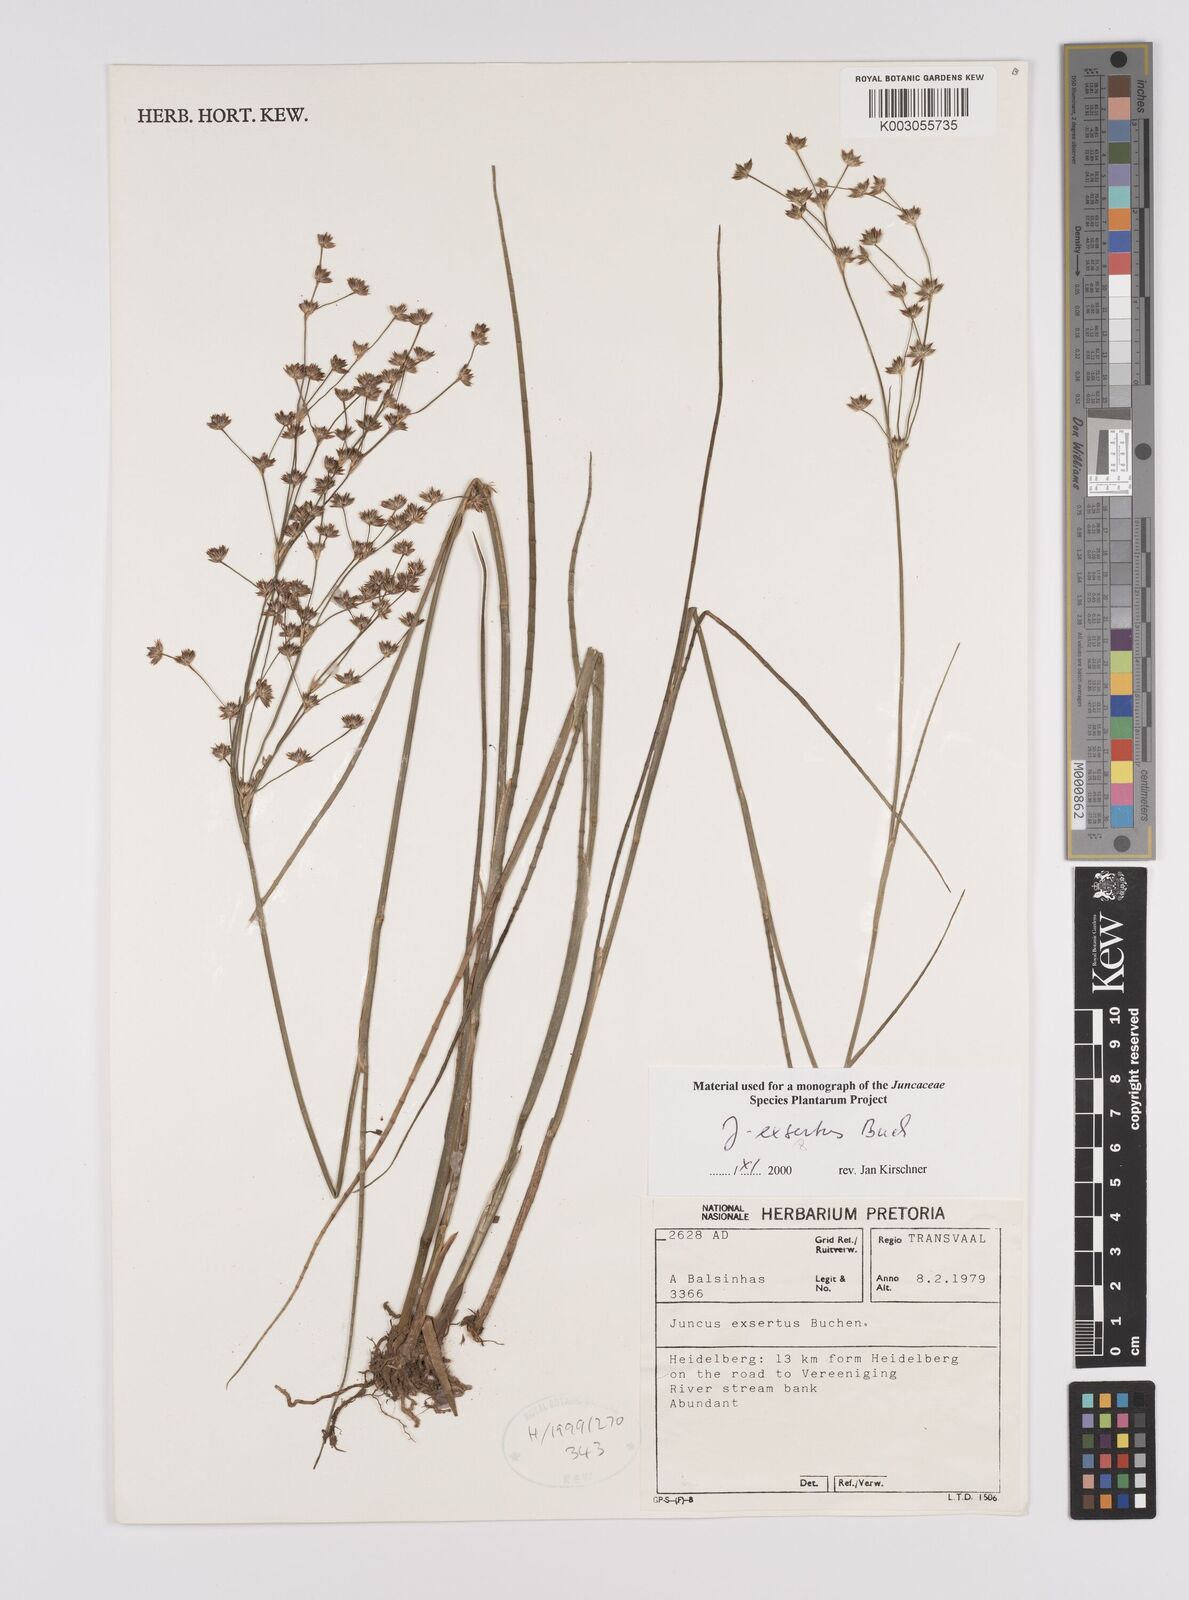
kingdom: Plantae
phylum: Tracheophyta
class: Liliopsida
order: Poales
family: Juncaceae
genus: Juncus
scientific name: Juncus exsertus
